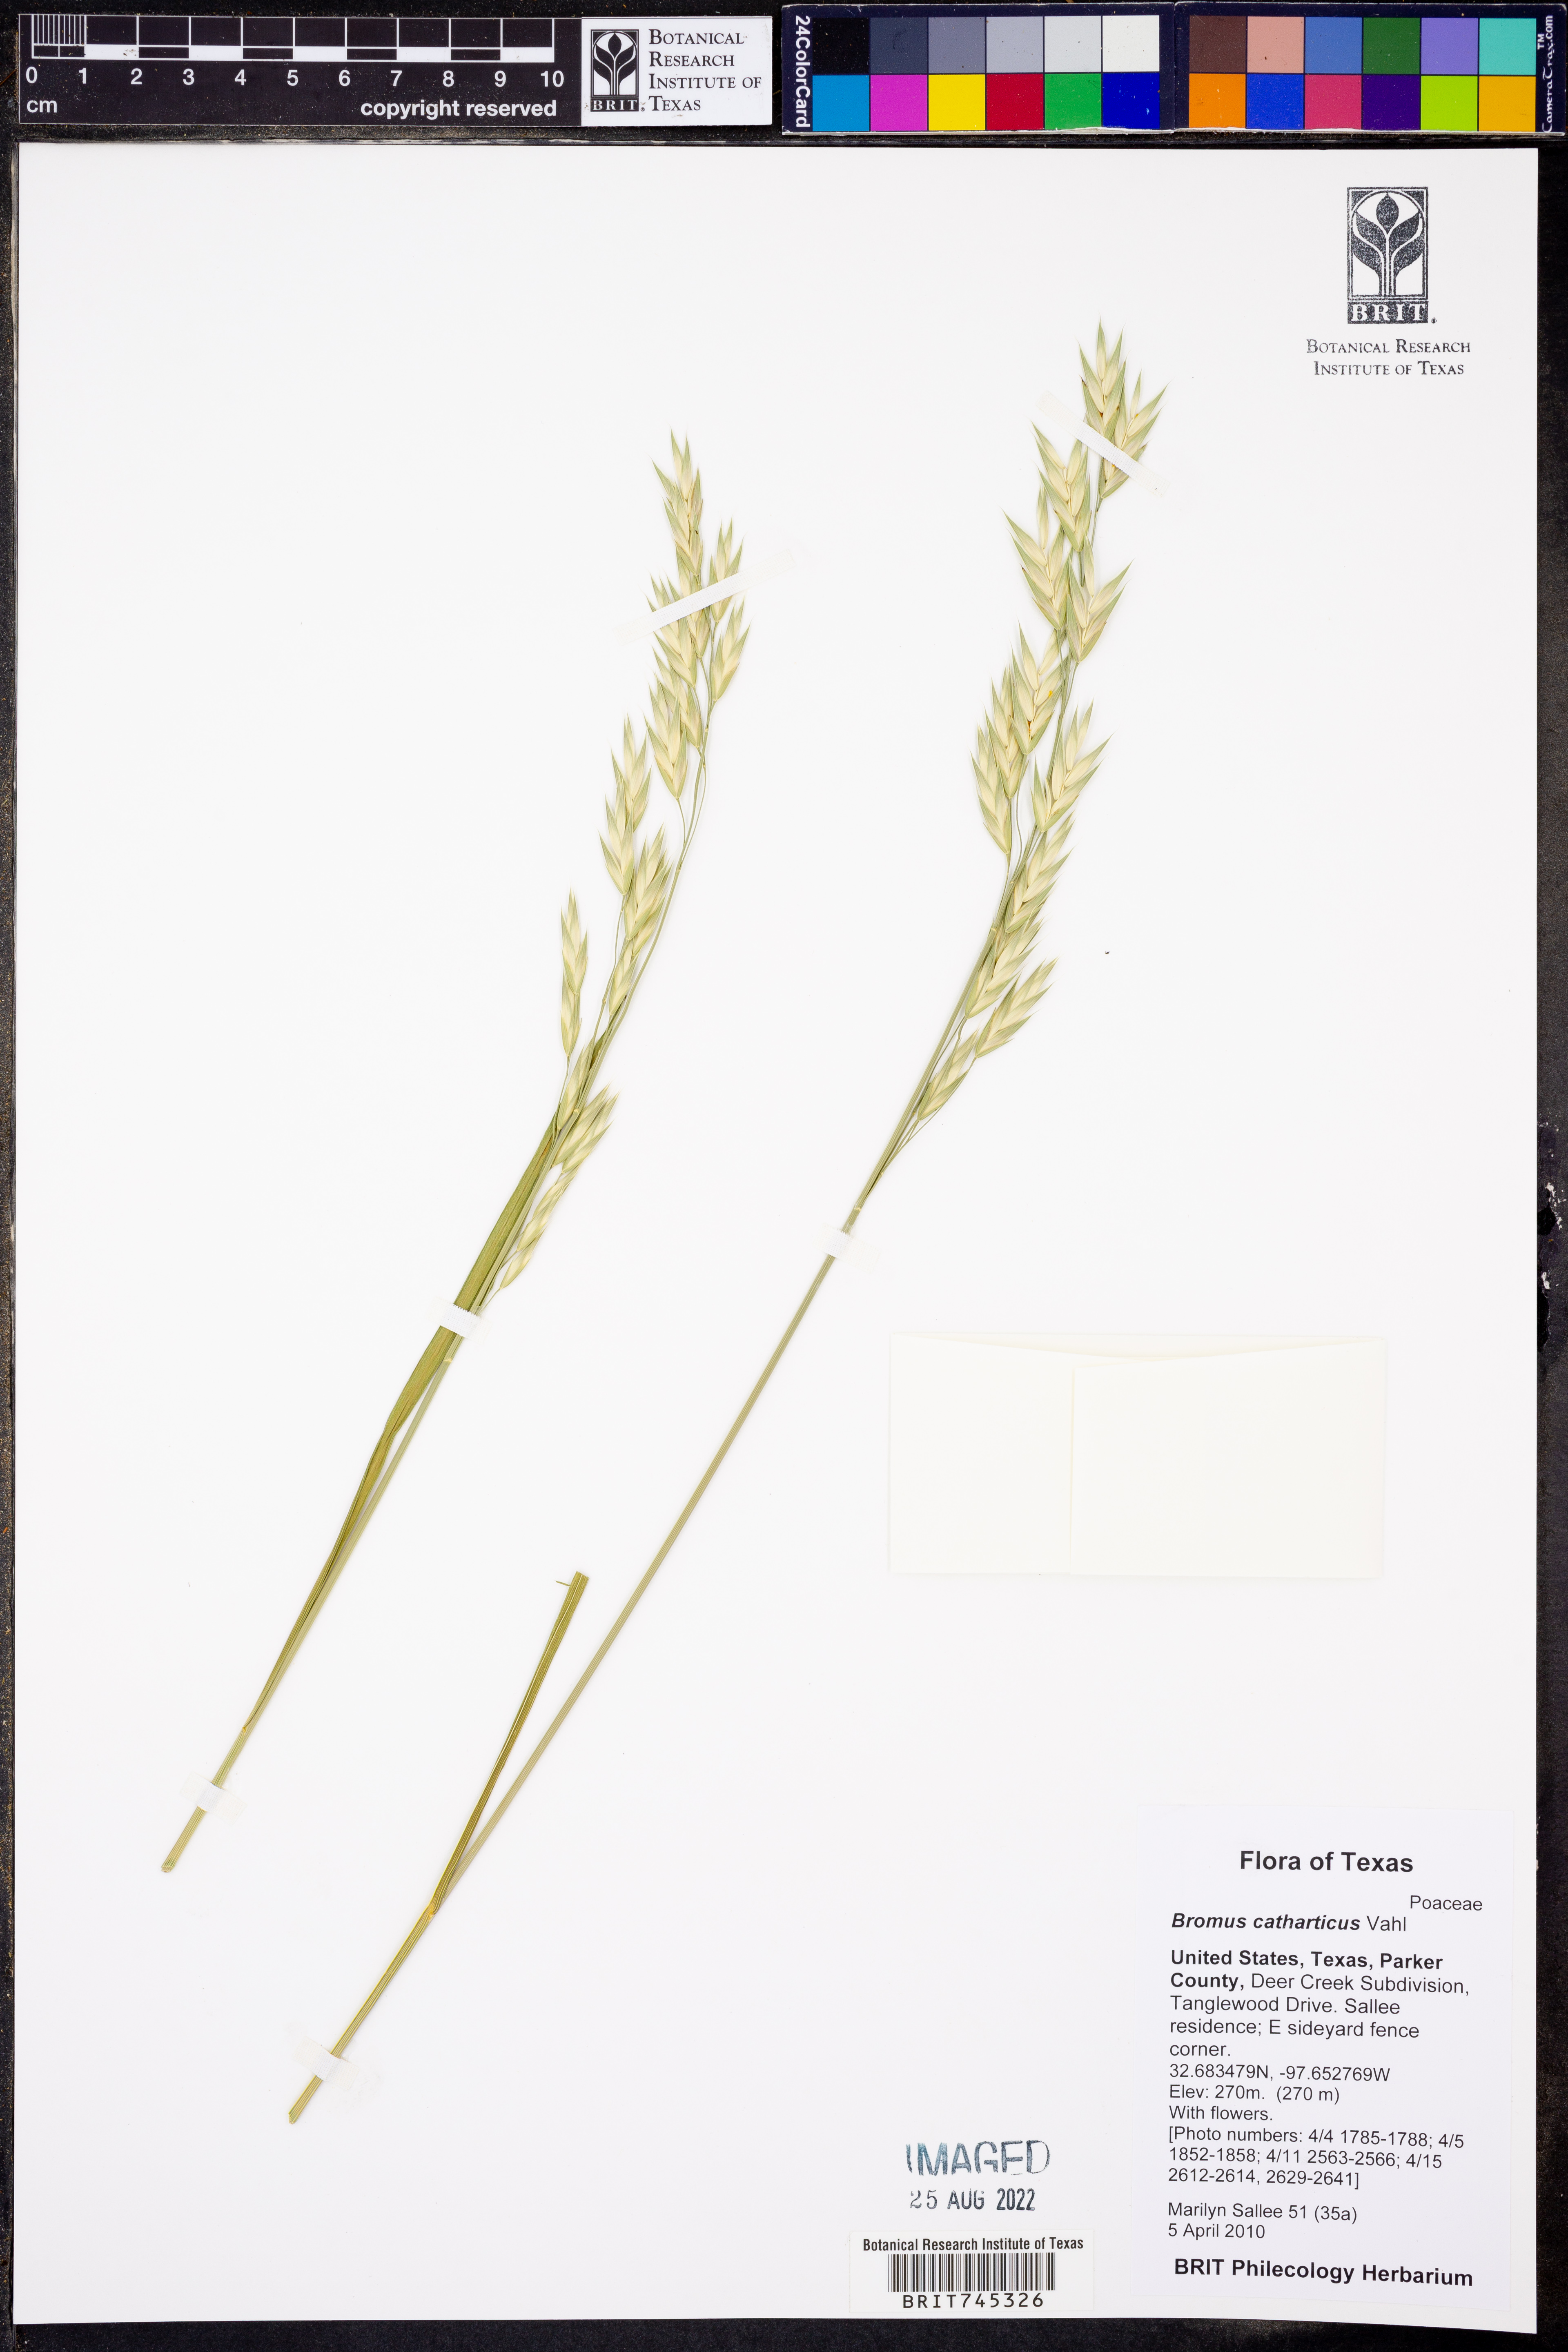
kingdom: Plantae
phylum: Tracheophyta
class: Liliopsida
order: Poales
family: Poaceae
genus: Bromus
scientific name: Bromus catharticus
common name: Rescuegrass
